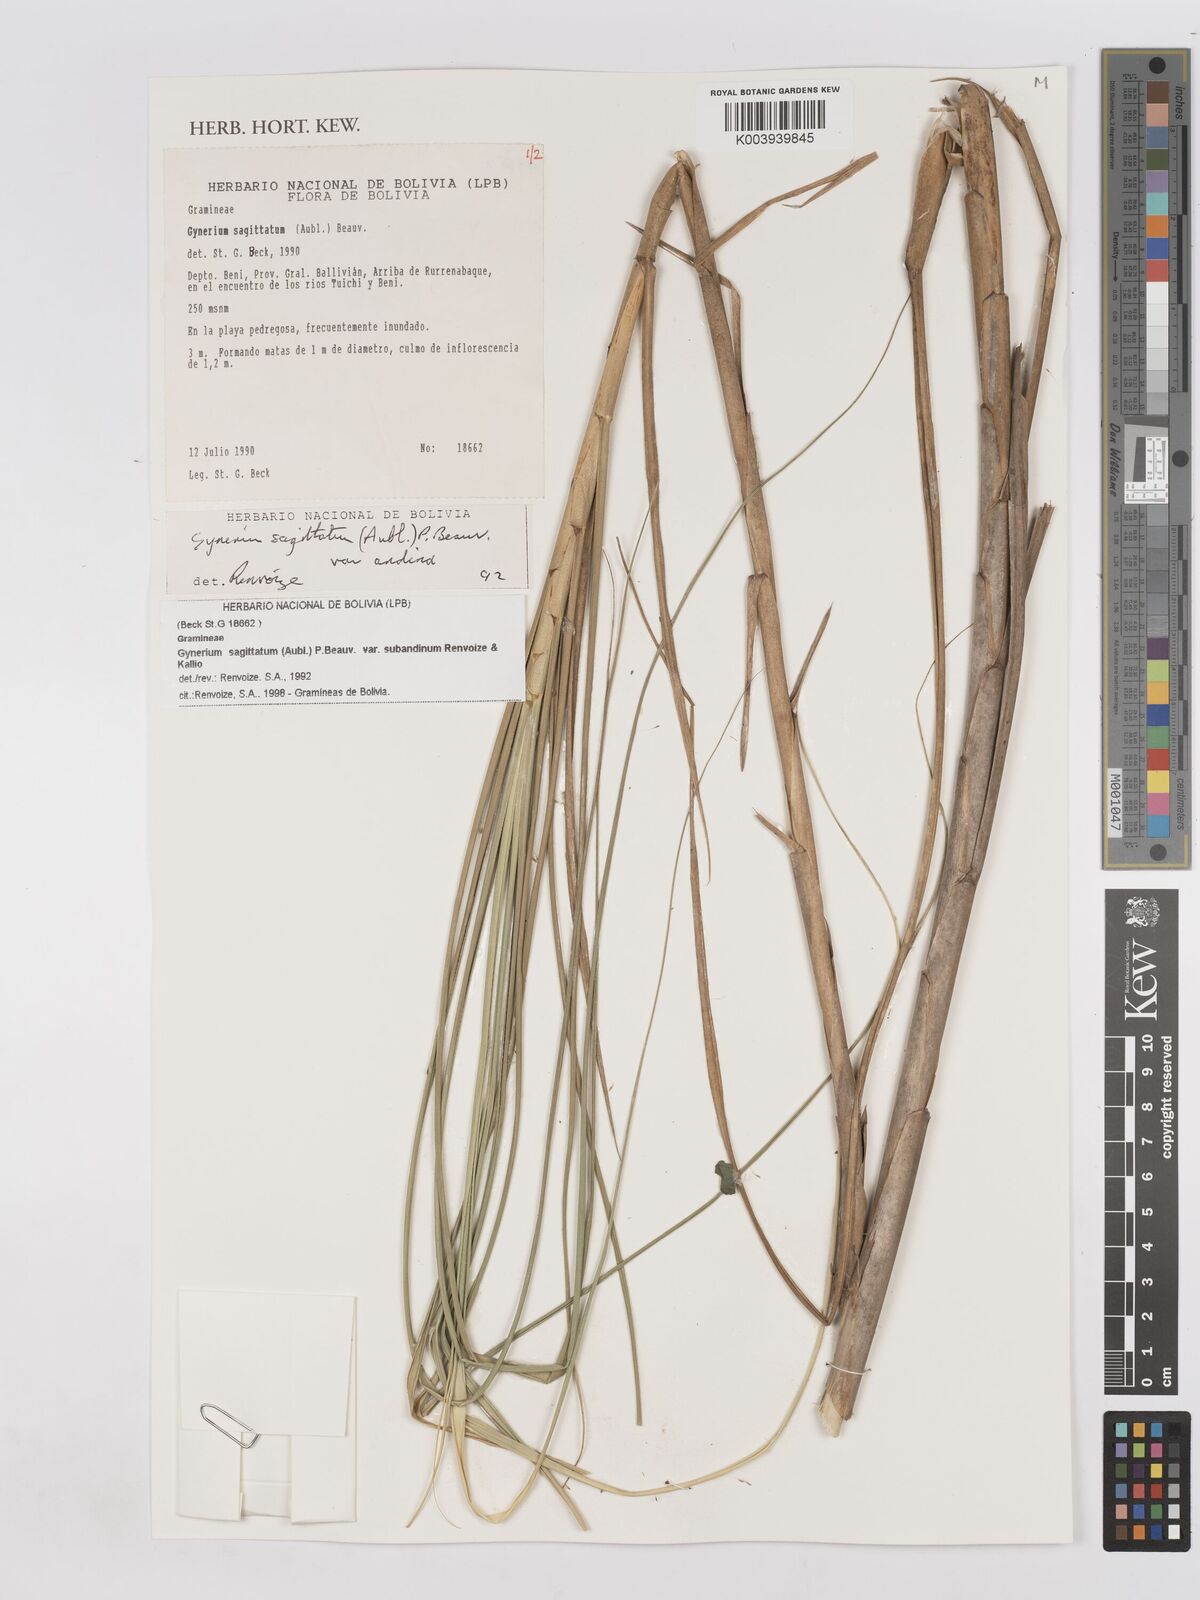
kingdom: Plantae
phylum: Tracheophyta
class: Liliopsida
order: Poales
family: Poaceae
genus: Gynerium
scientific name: Gynerium sagittatum
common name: Wild cane
